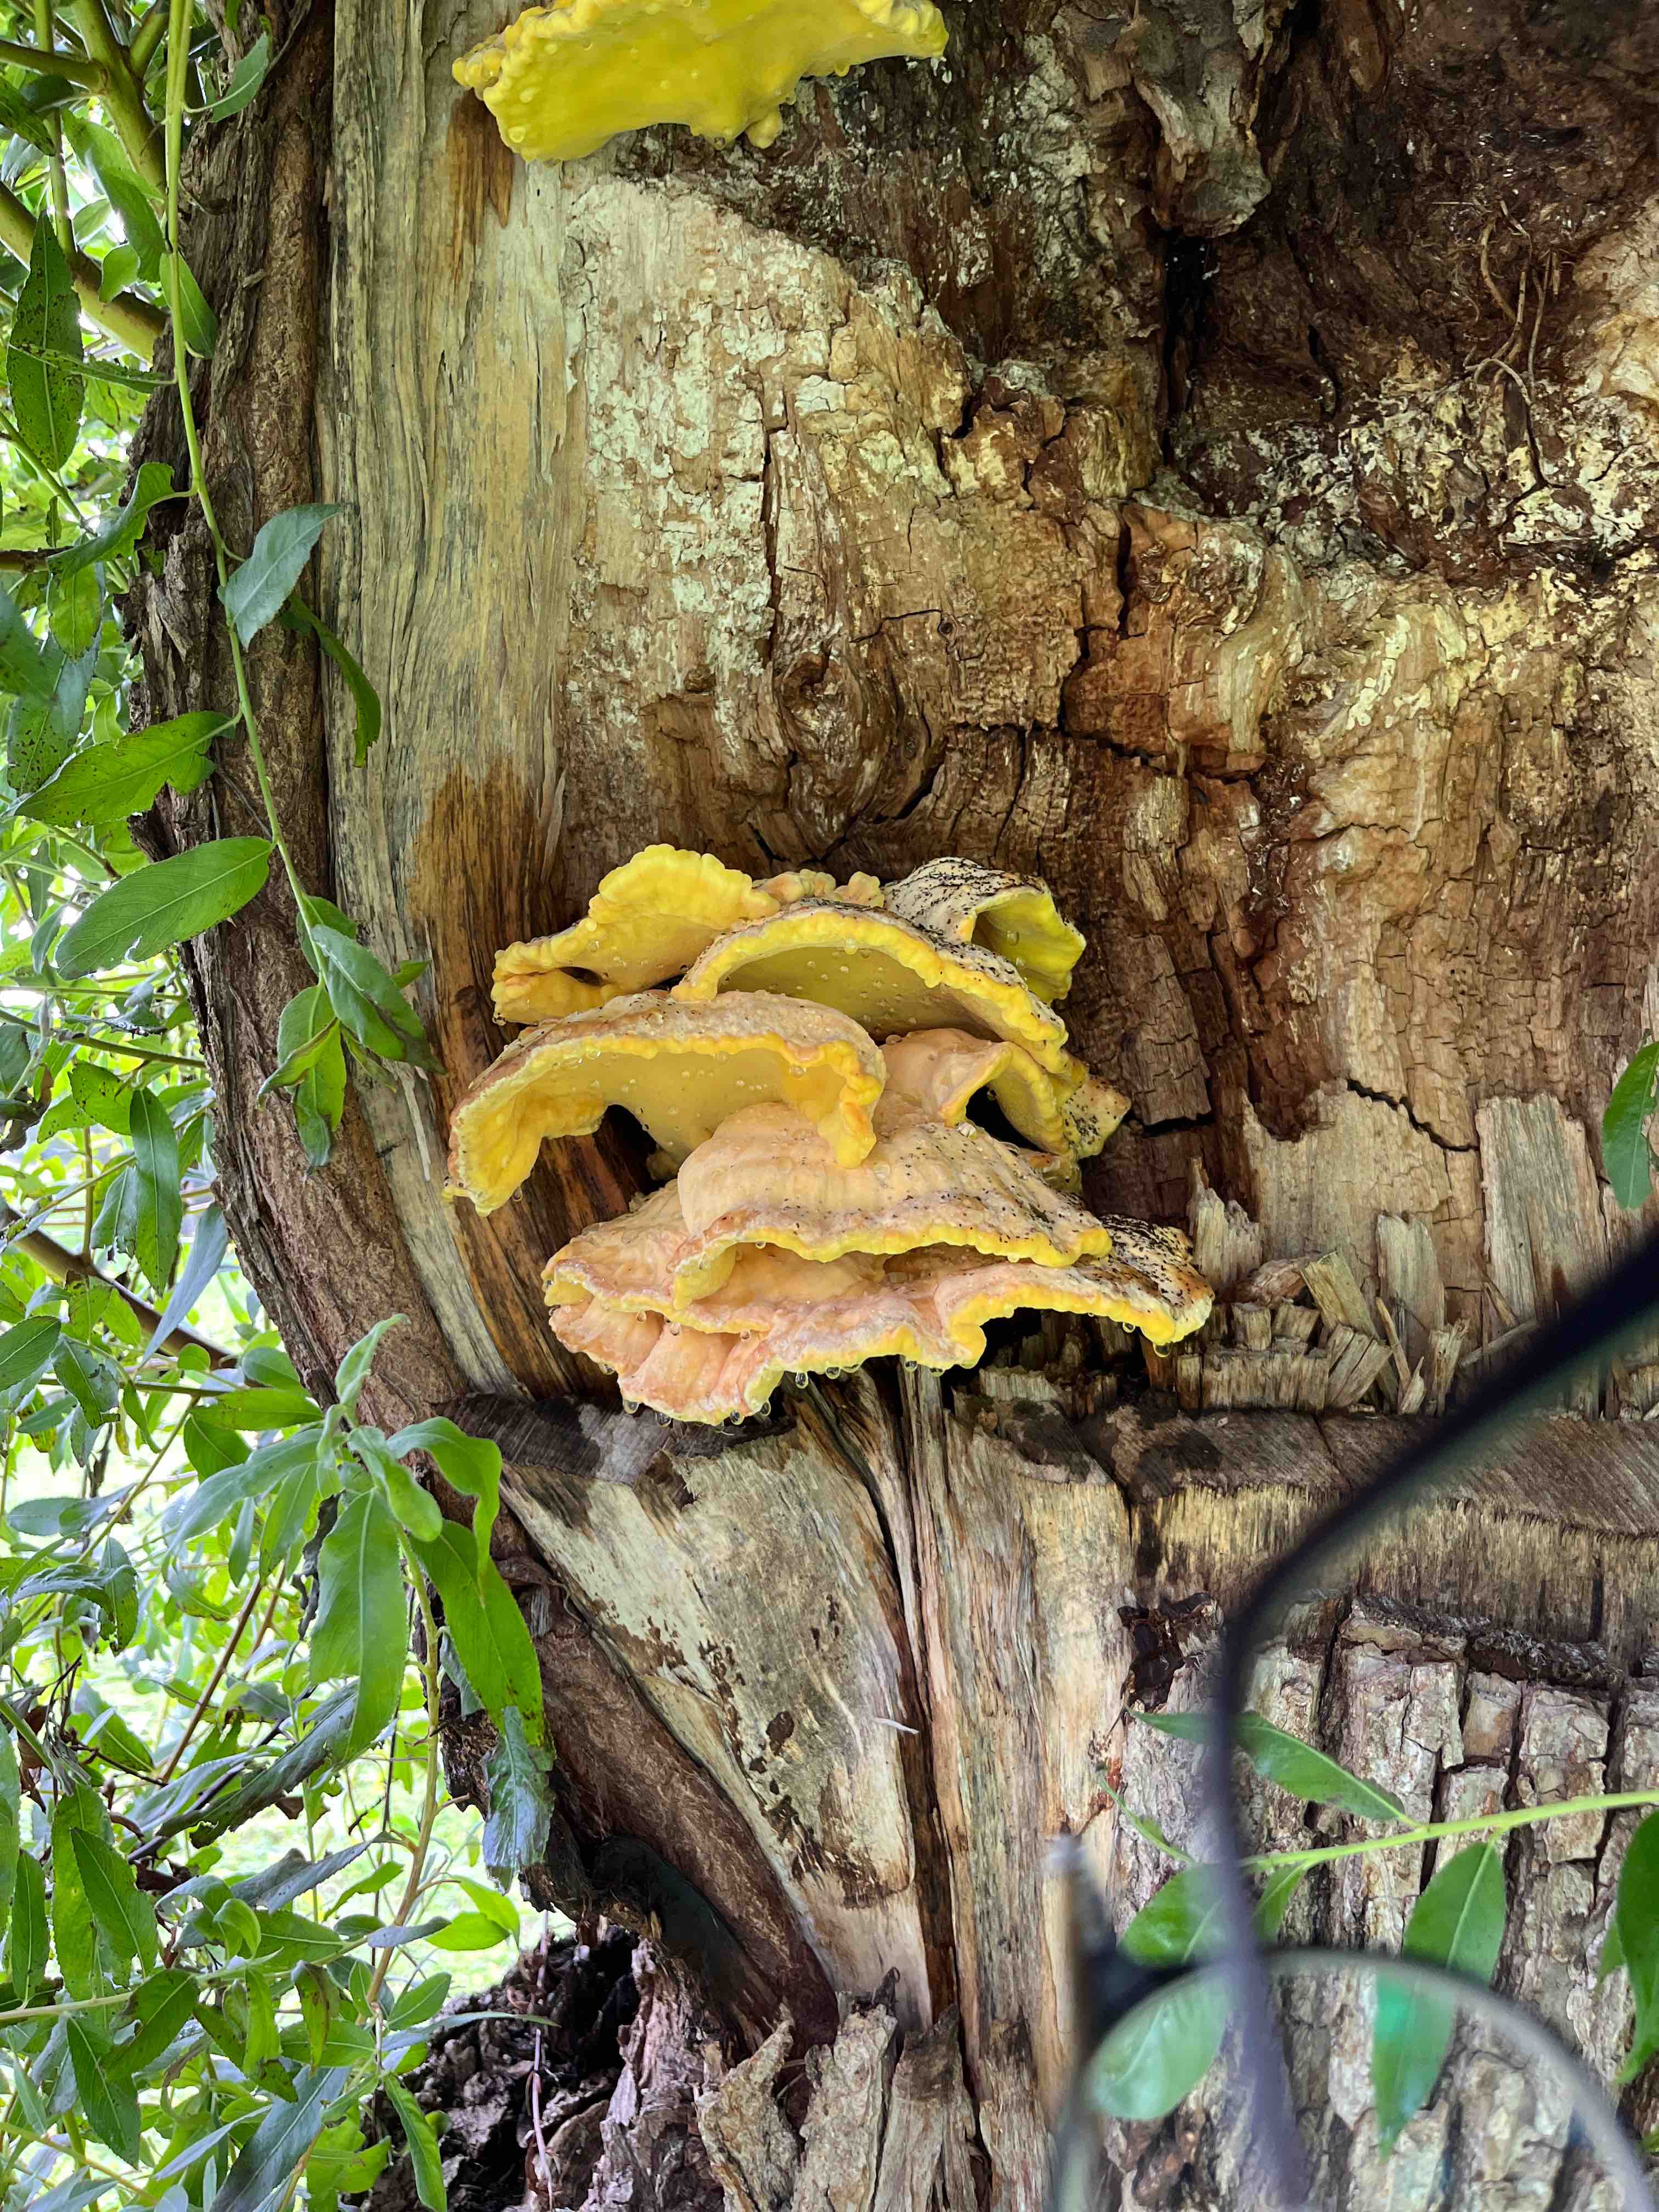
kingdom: Fungi
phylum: Basidiomycota
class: Agaricomycetes
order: Polyporales
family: Laetiporaceae
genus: Laetiporus
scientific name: Laetiporus sulphureus
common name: svovlporesvamp
